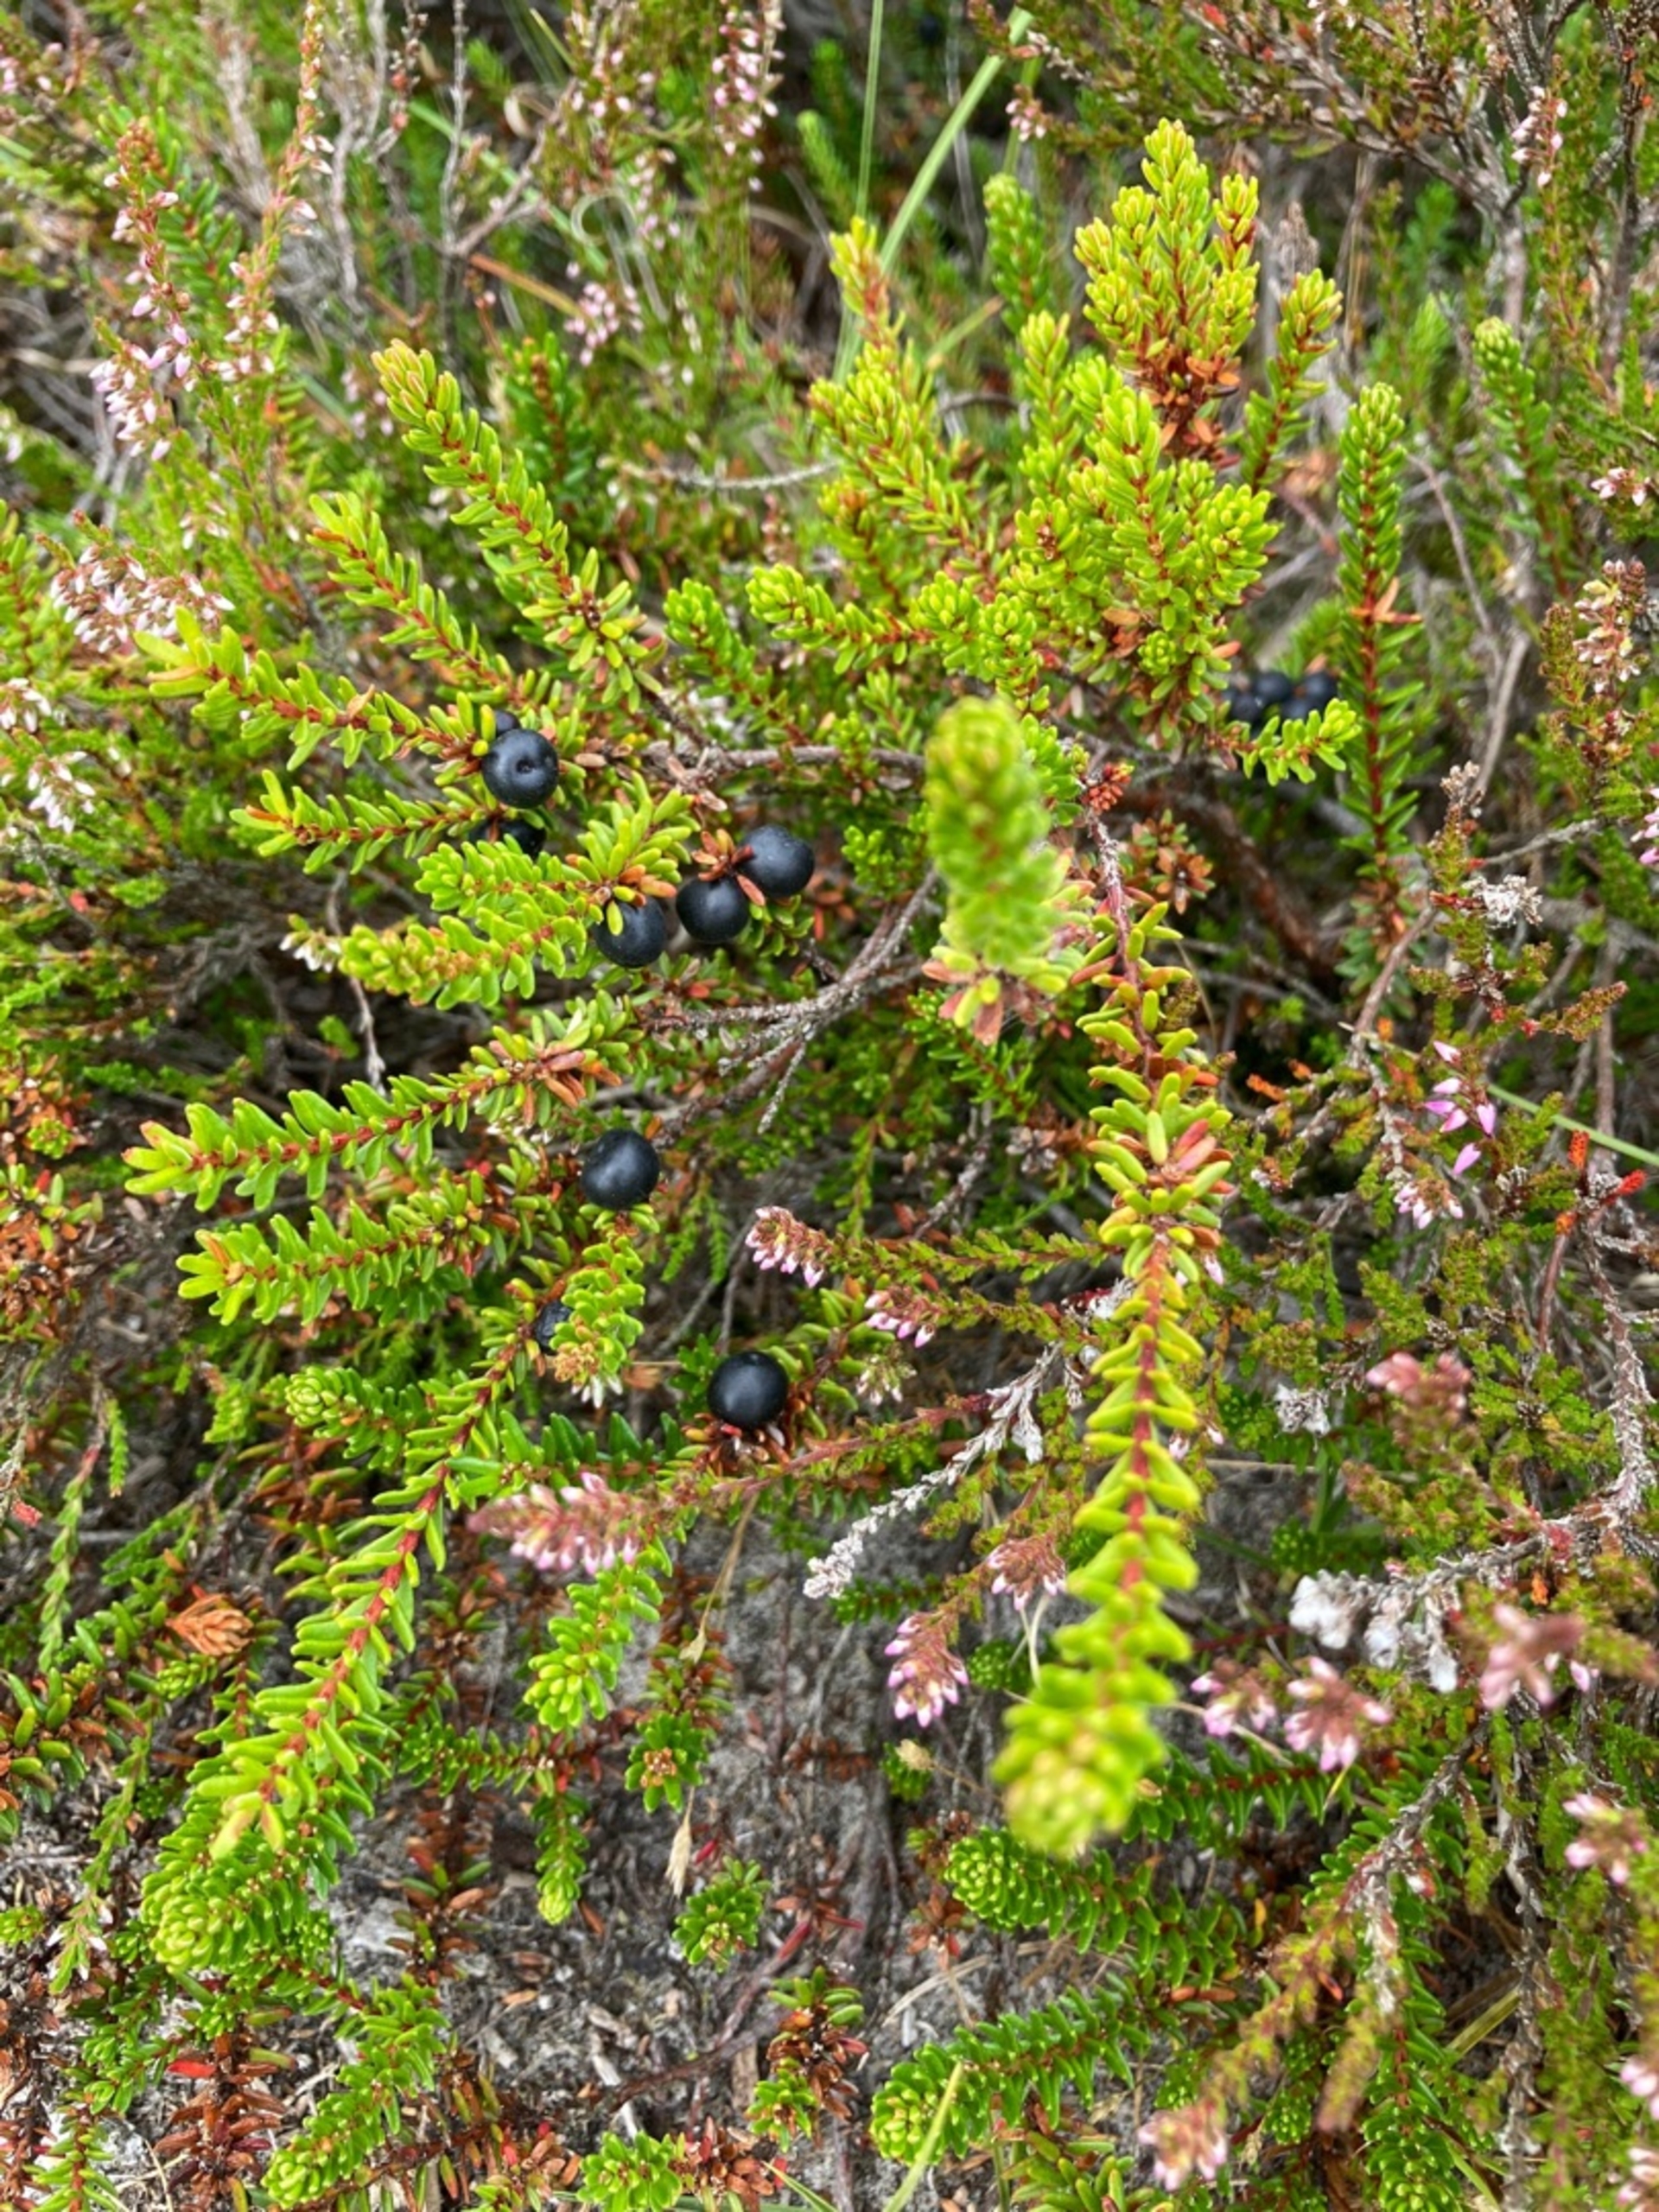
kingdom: Plantae
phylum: Tracheophyta
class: Magnoliopsida
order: Ericales
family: Ericaceae
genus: Empetrum
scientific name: Empetrum nigrum
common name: Revling
